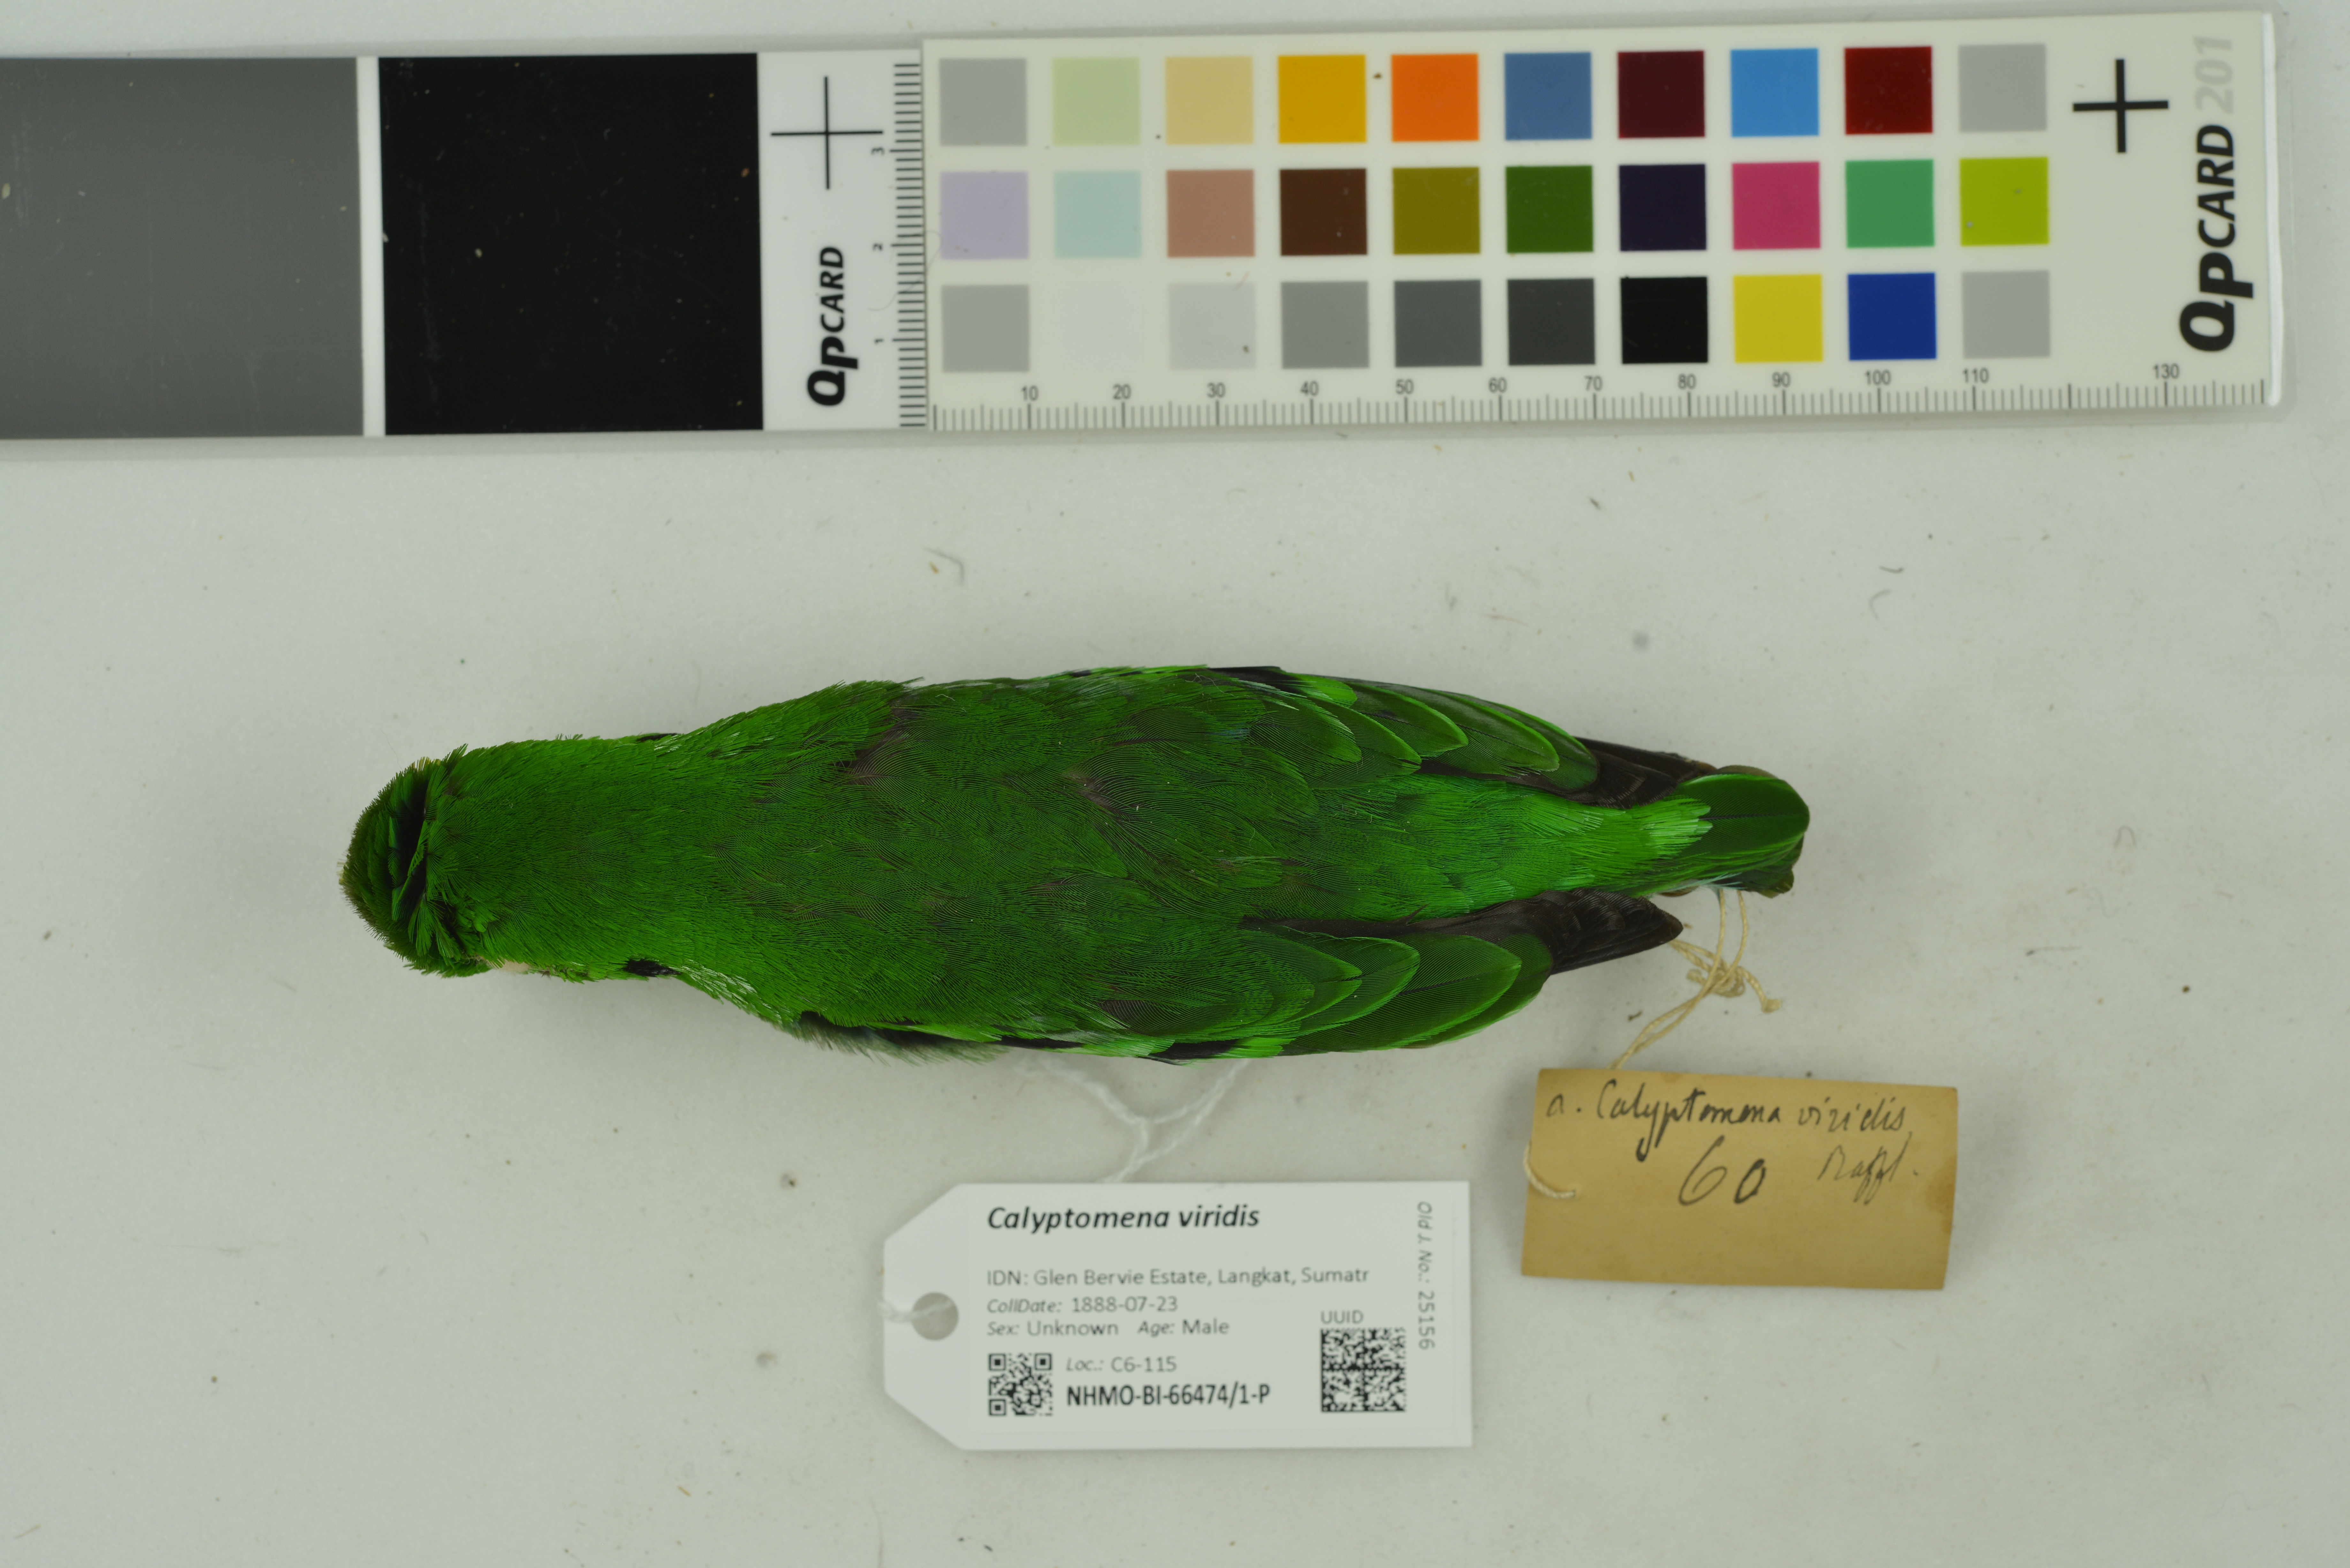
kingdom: Animalia
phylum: Chordata
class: Aves
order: Passeriformes
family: Eurylaimidae
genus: Calyptomena
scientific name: Calyptomena viridis
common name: Green broadbill
